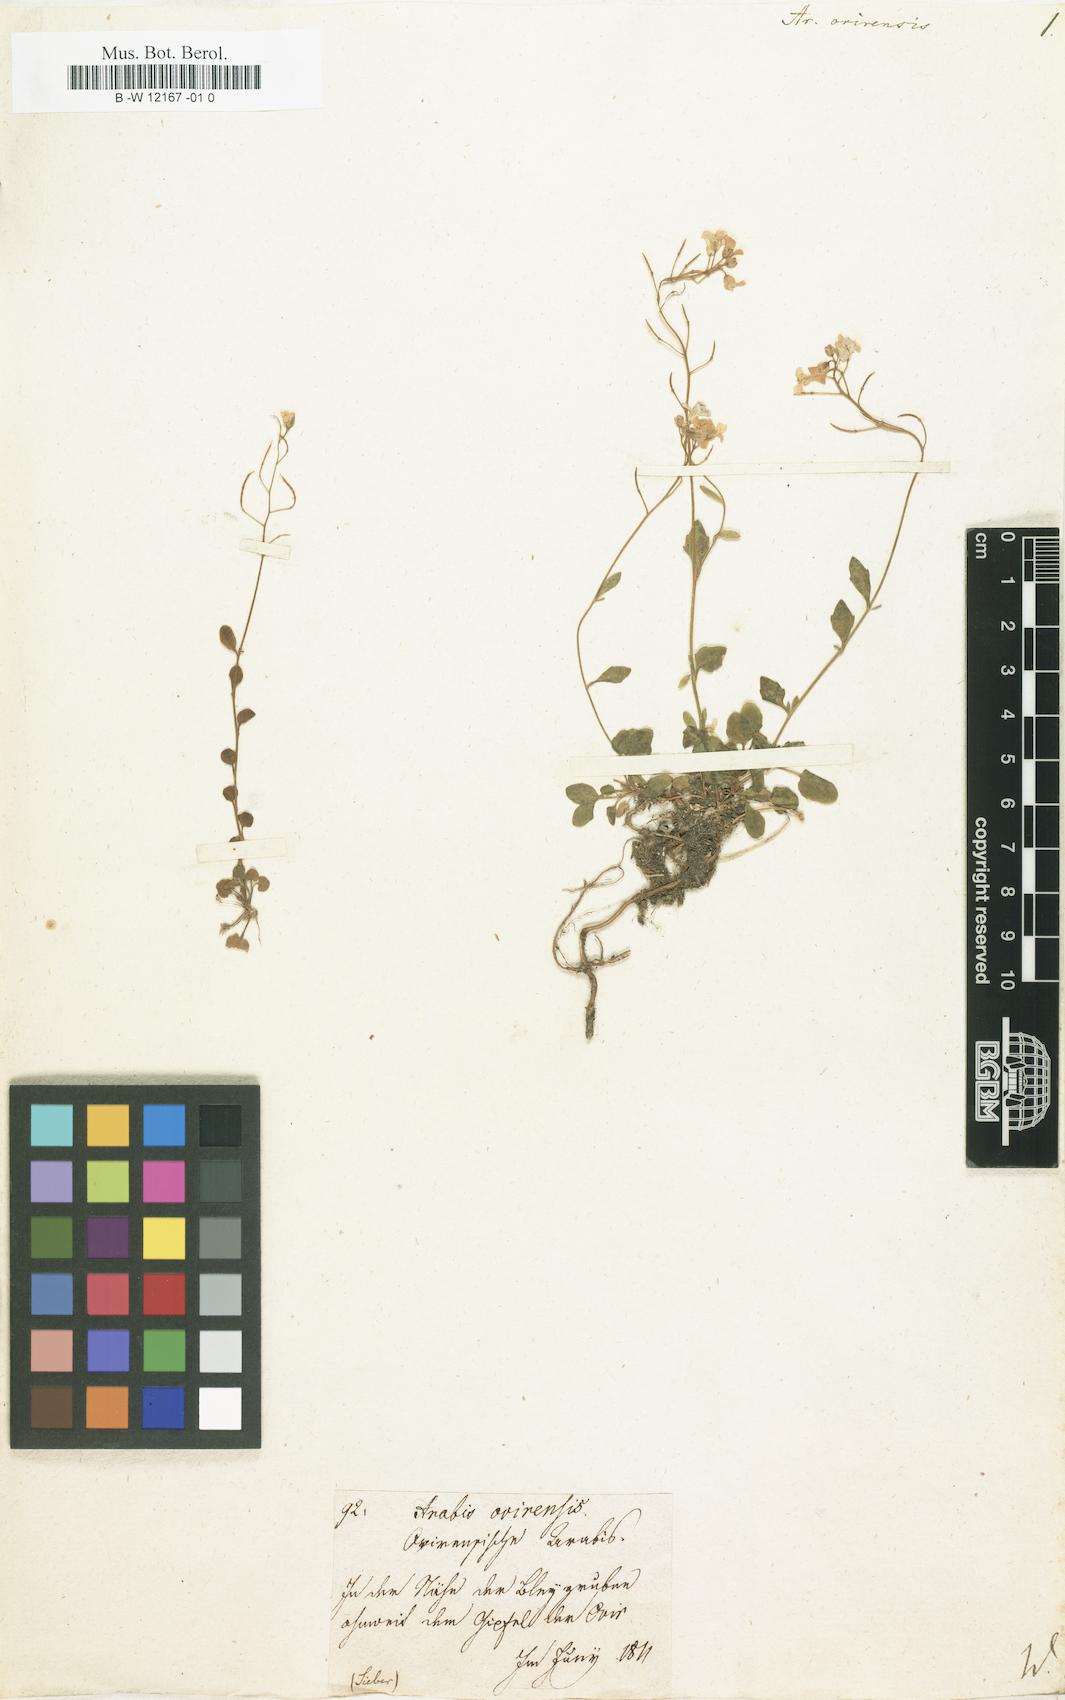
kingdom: Plantae
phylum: Tracheophyta
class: Magnoliopsida
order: Brassicales
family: Brassicaceae
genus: Arabidopsis
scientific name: Arabidopsis halleri
